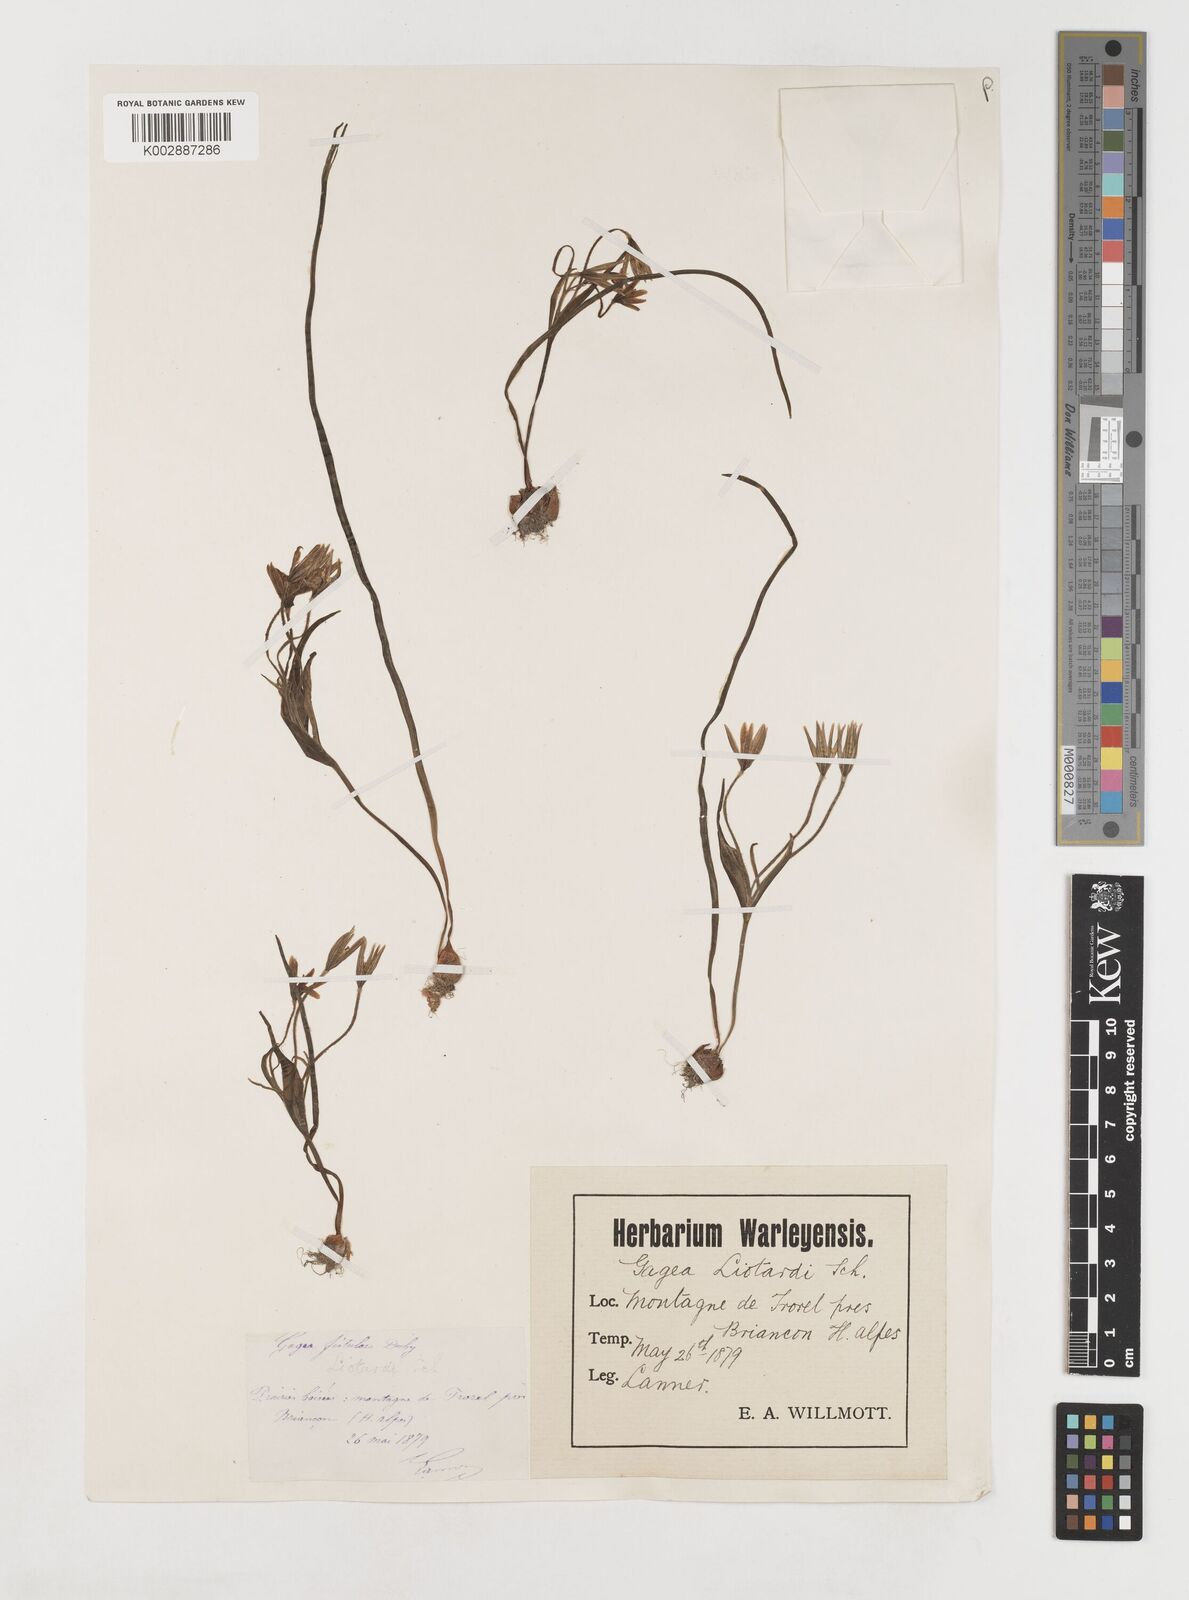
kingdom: Plantae
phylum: Tracheophyta
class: Liliopsida
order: Liliales
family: Liliaceae
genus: Gagea
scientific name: Gagea bohemica
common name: Early star-of-bethlehem
